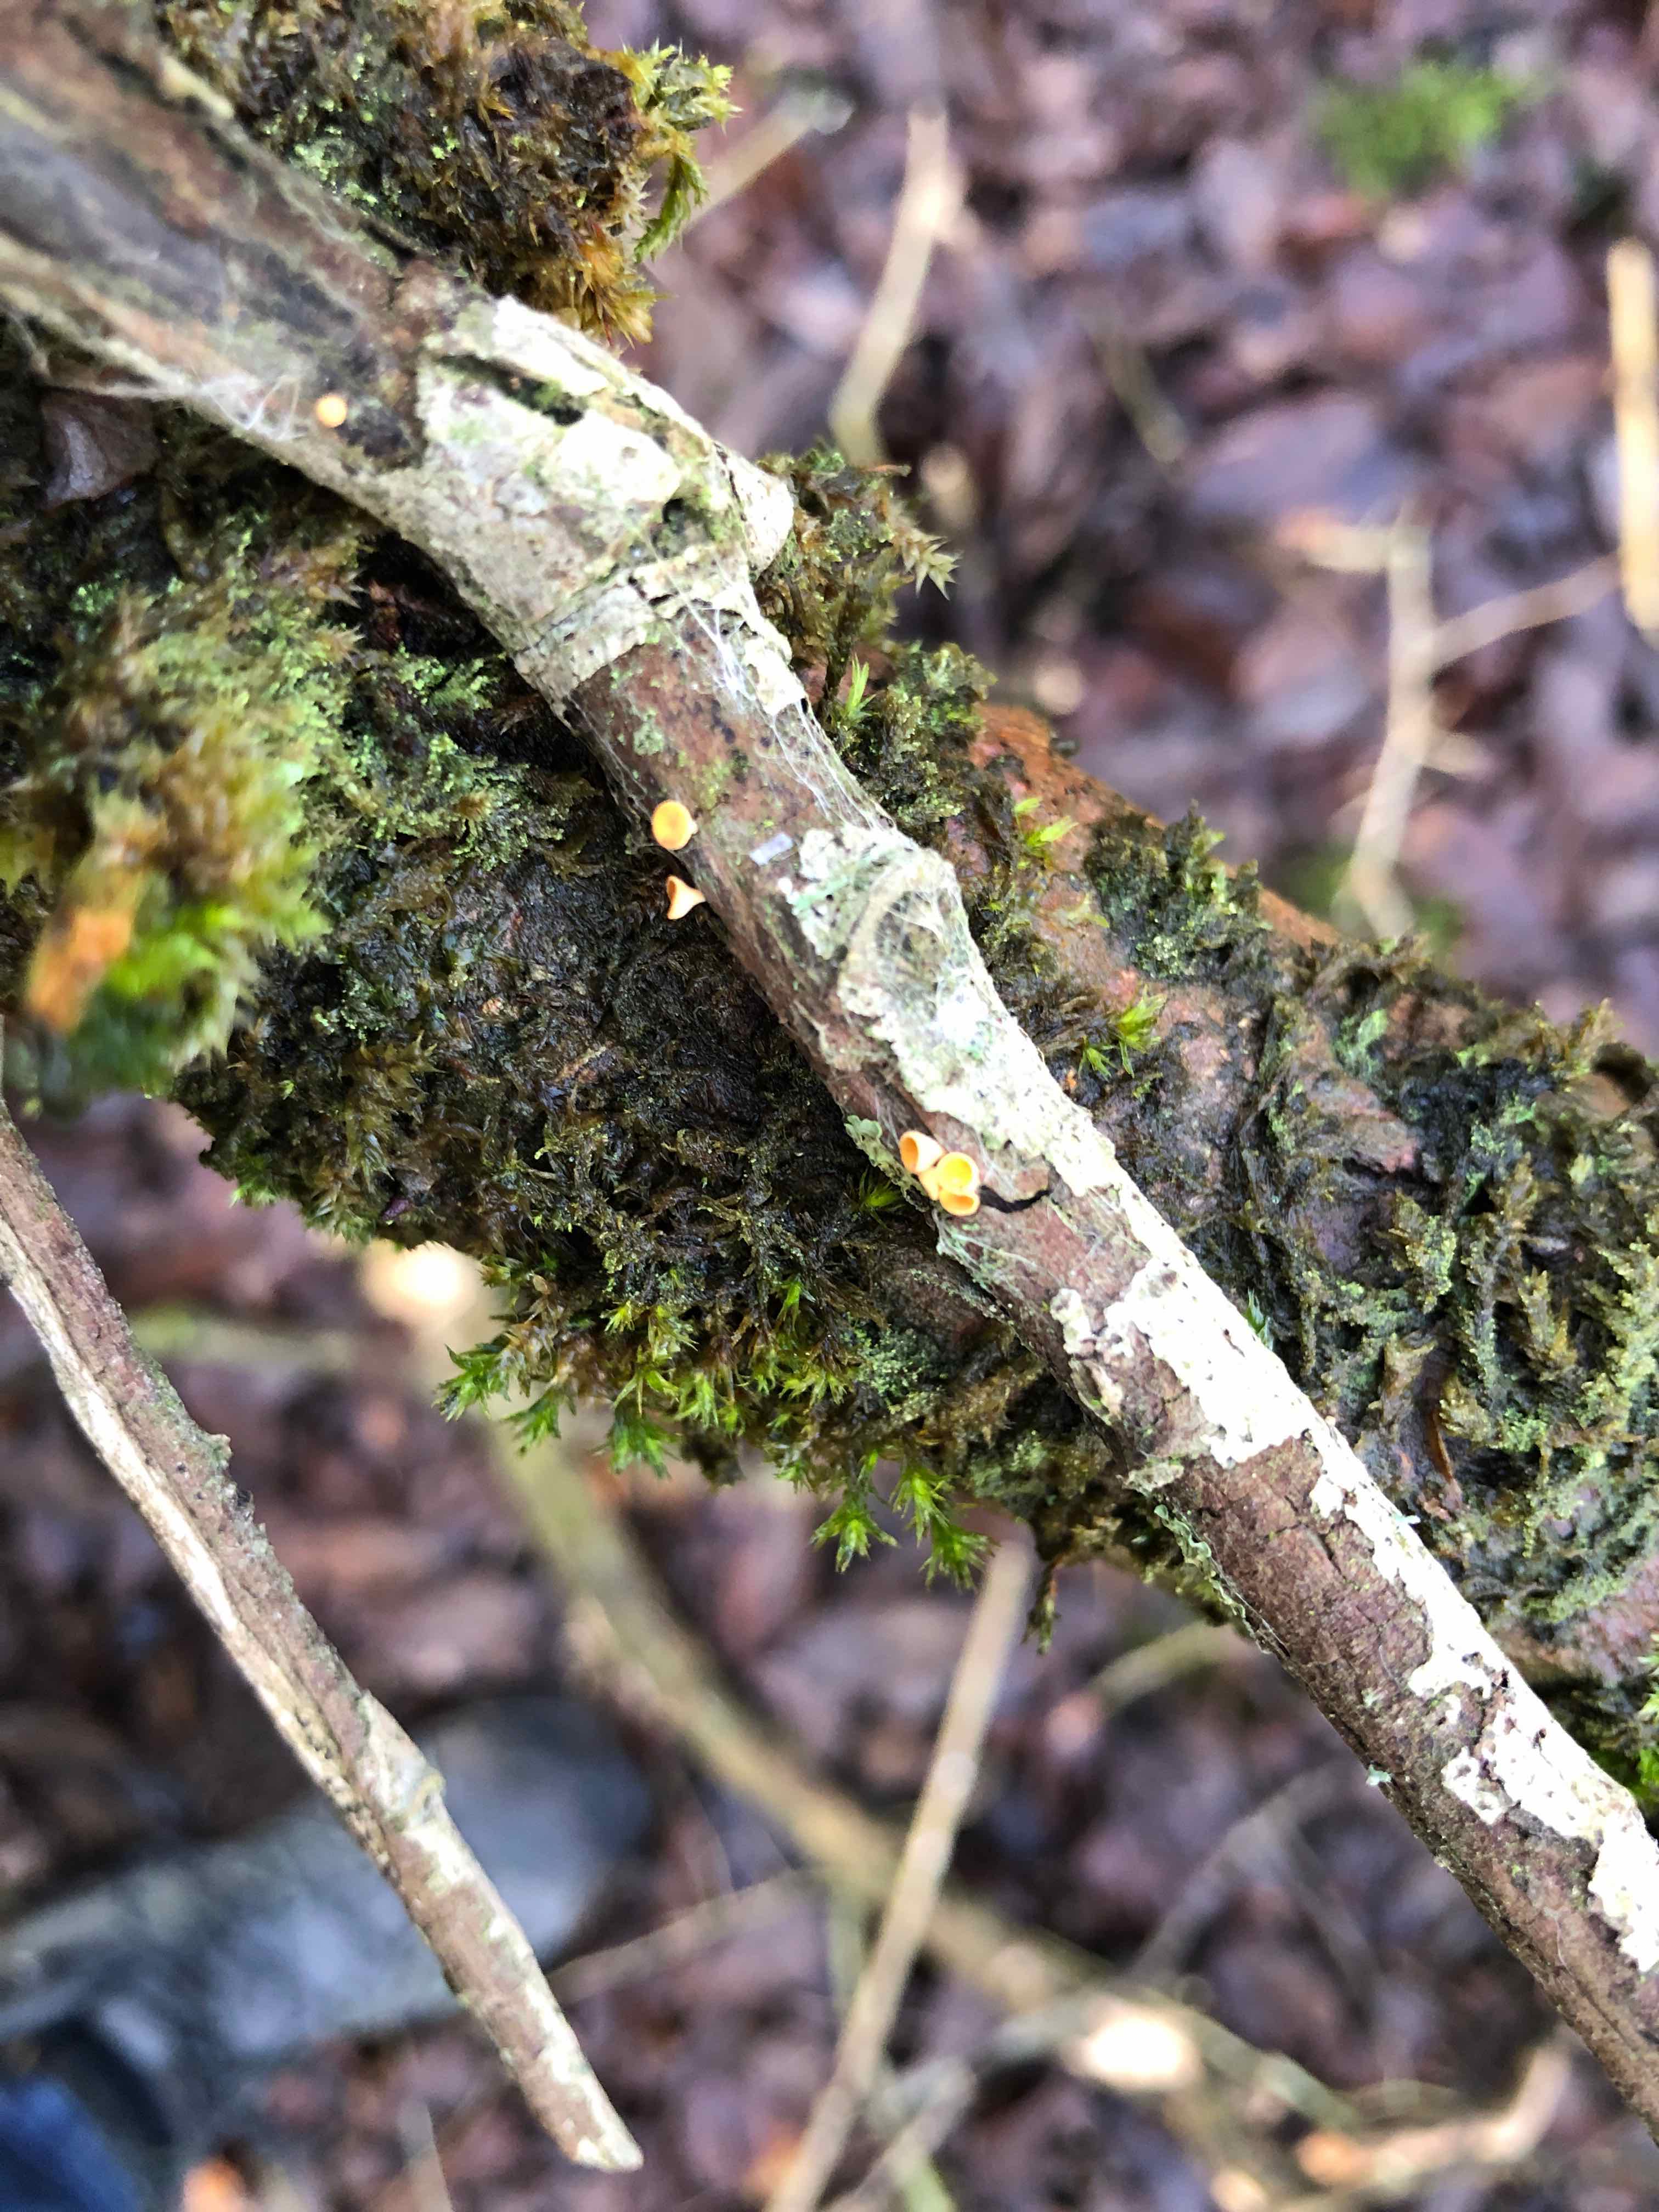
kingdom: Fungi
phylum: Ascomycota
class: Leotiomycetes
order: Helotiales
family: Helotiaceae
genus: Hymenoscyphus
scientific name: Hymenoscyphus
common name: stilkskive
